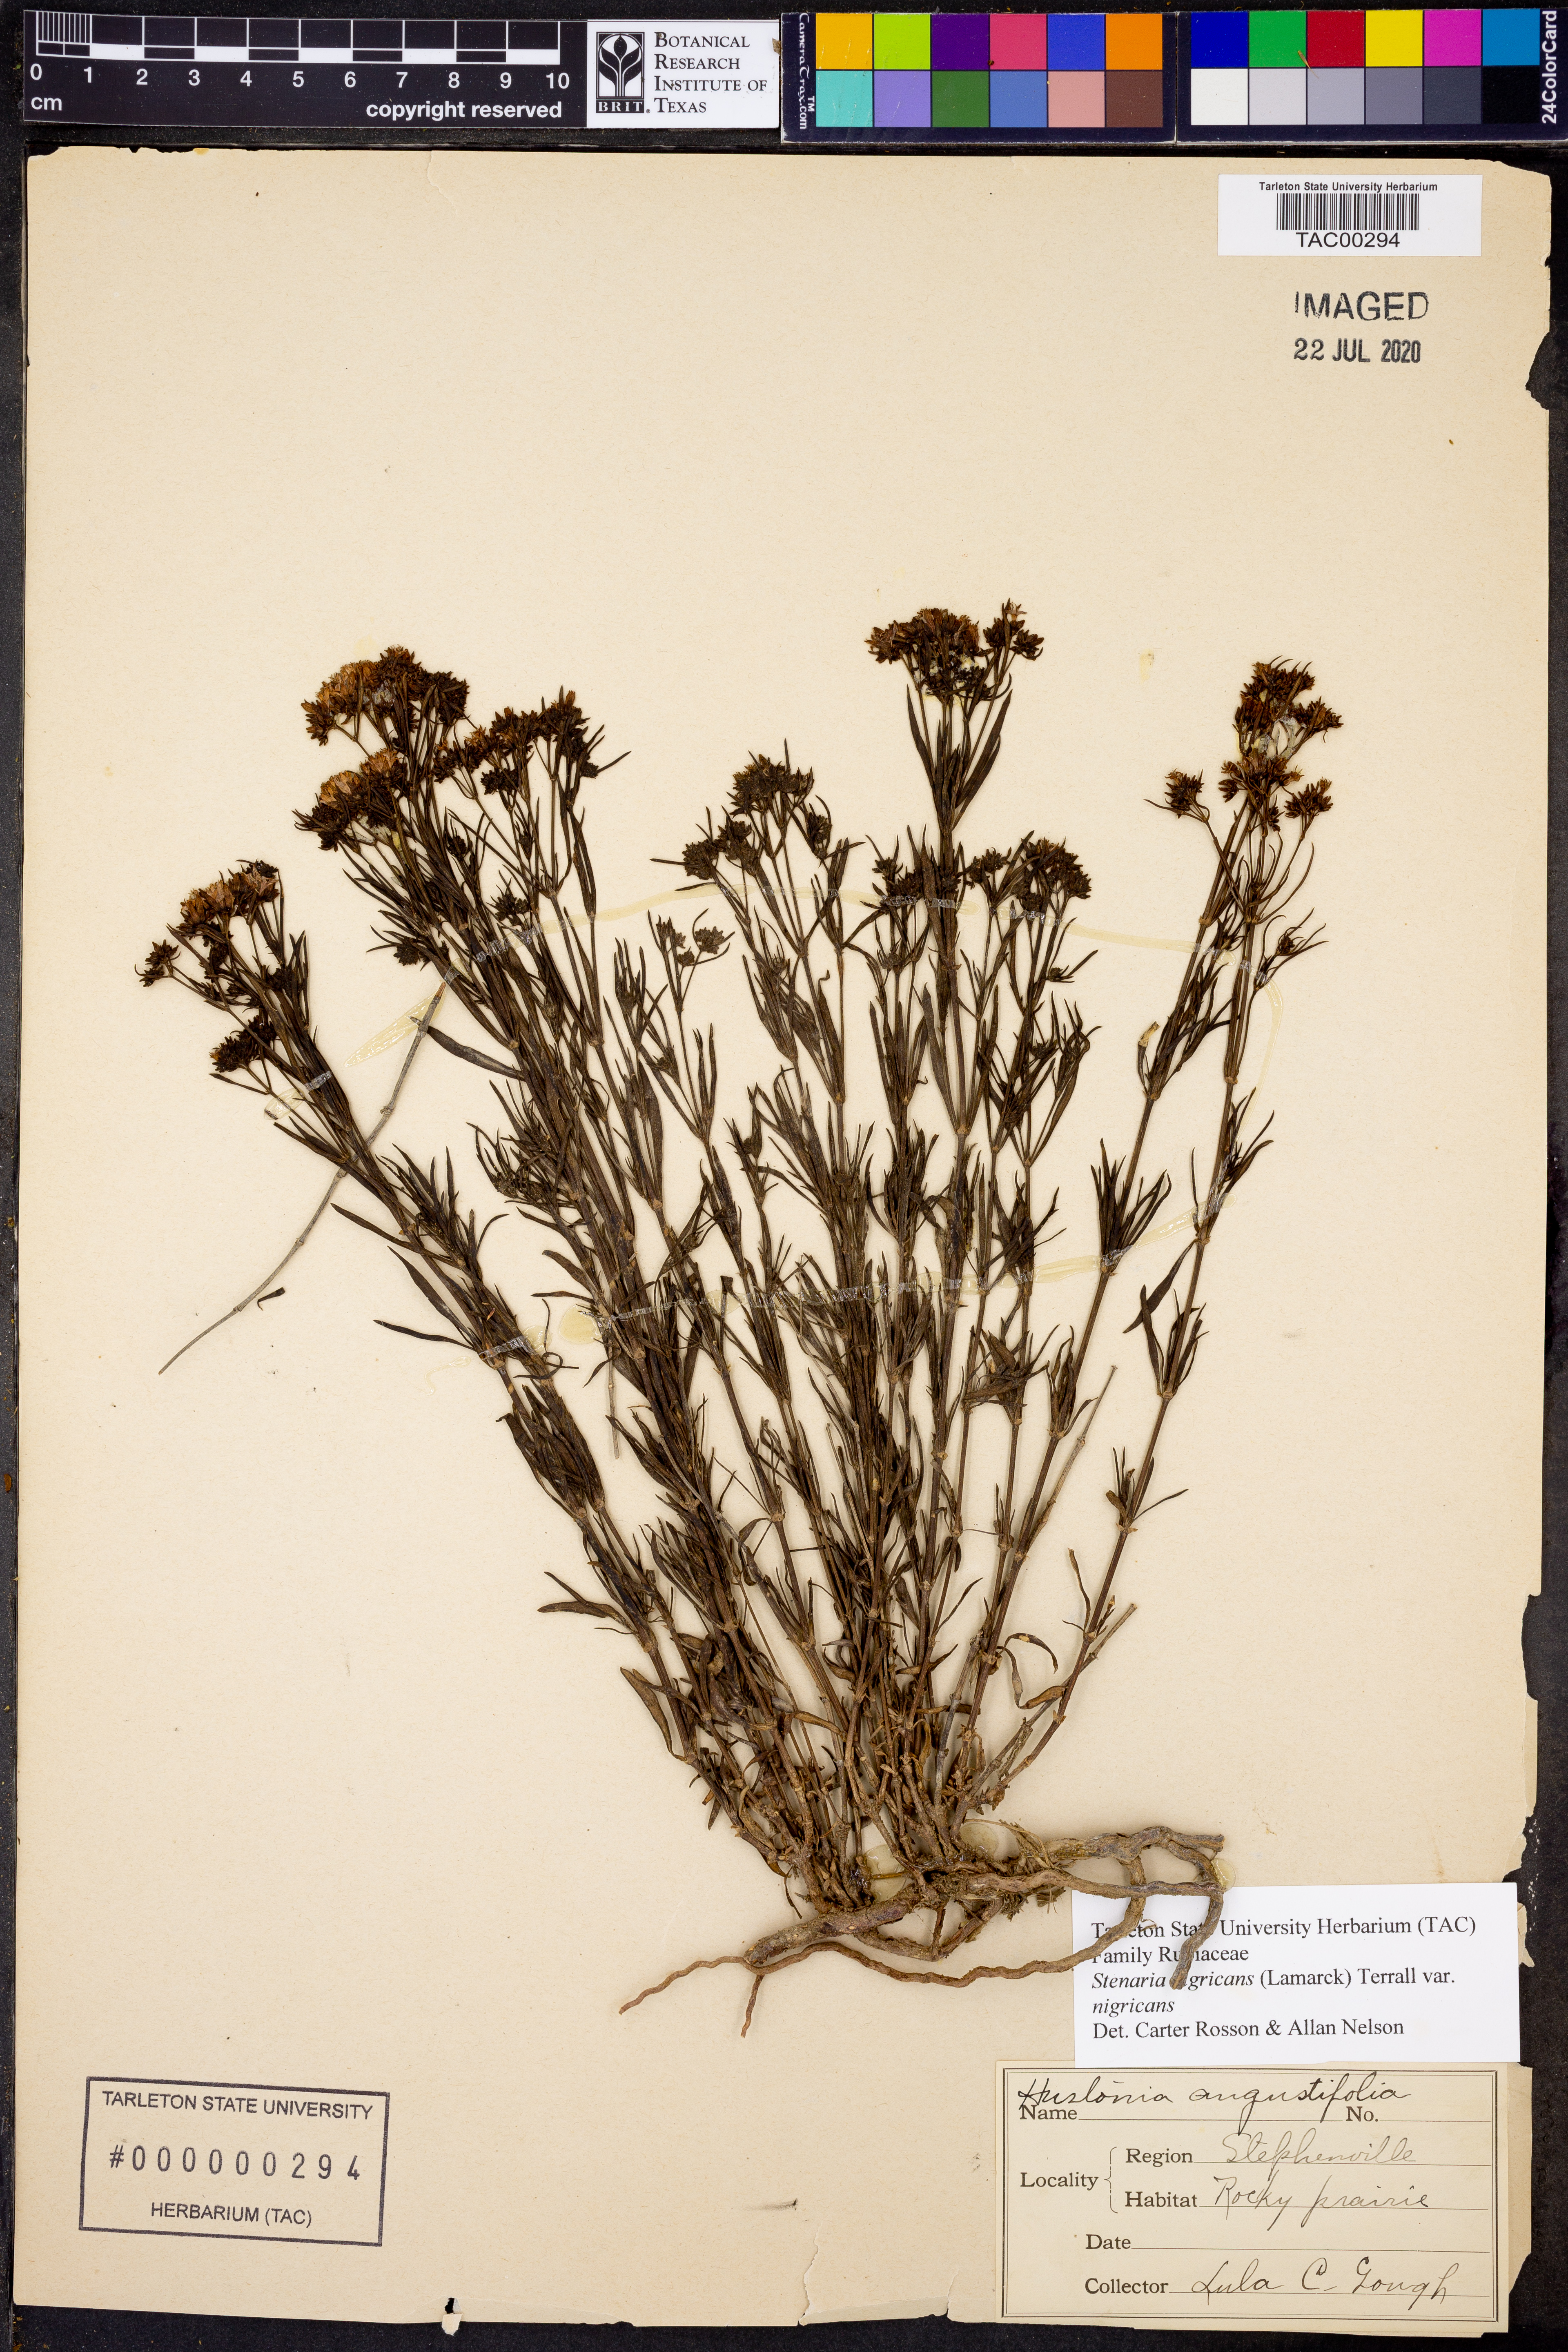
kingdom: Plantae
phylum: Tracheophyta
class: Magnoliopsida
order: Gentianales
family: Rubiaceae
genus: Stenaria
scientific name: Stenaria nigricans
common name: Diamondflowers
